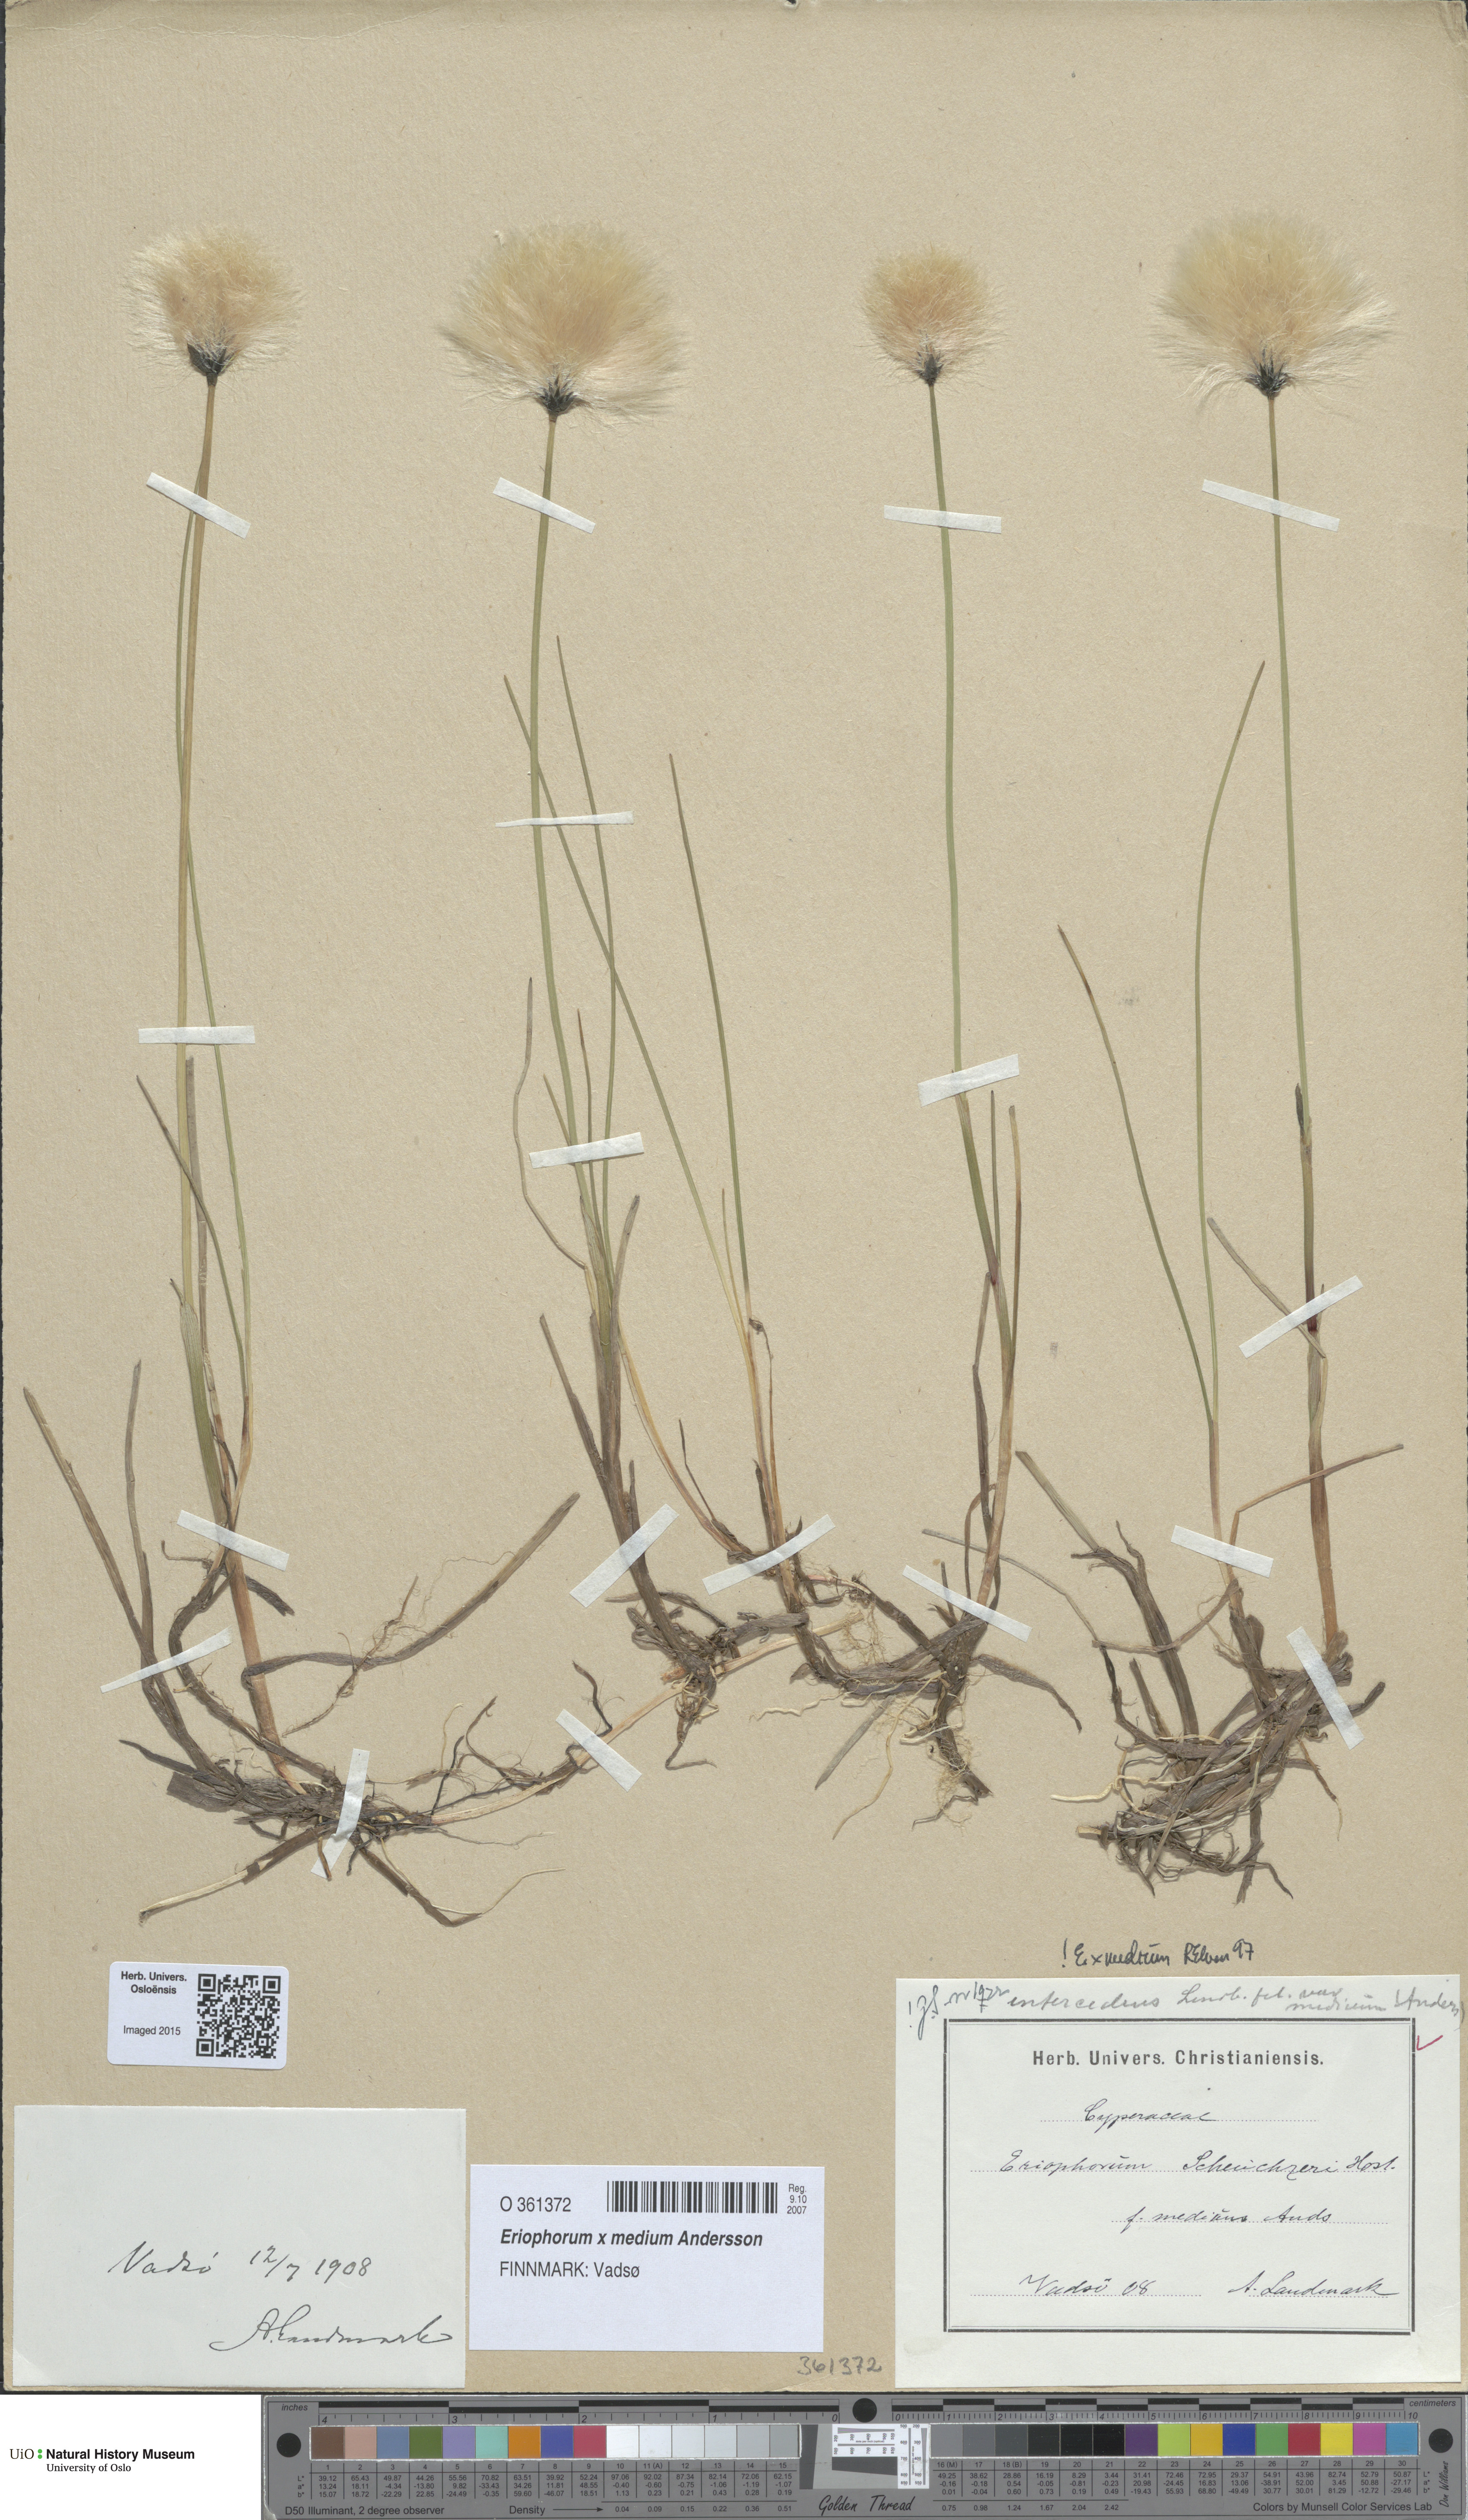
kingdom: Plantae
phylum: Tracheophyta
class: Liliopsida
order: Poales
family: Cyperaceae
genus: Eriophorum
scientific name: Eriophorum medium
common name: Intermediate cottongrass
